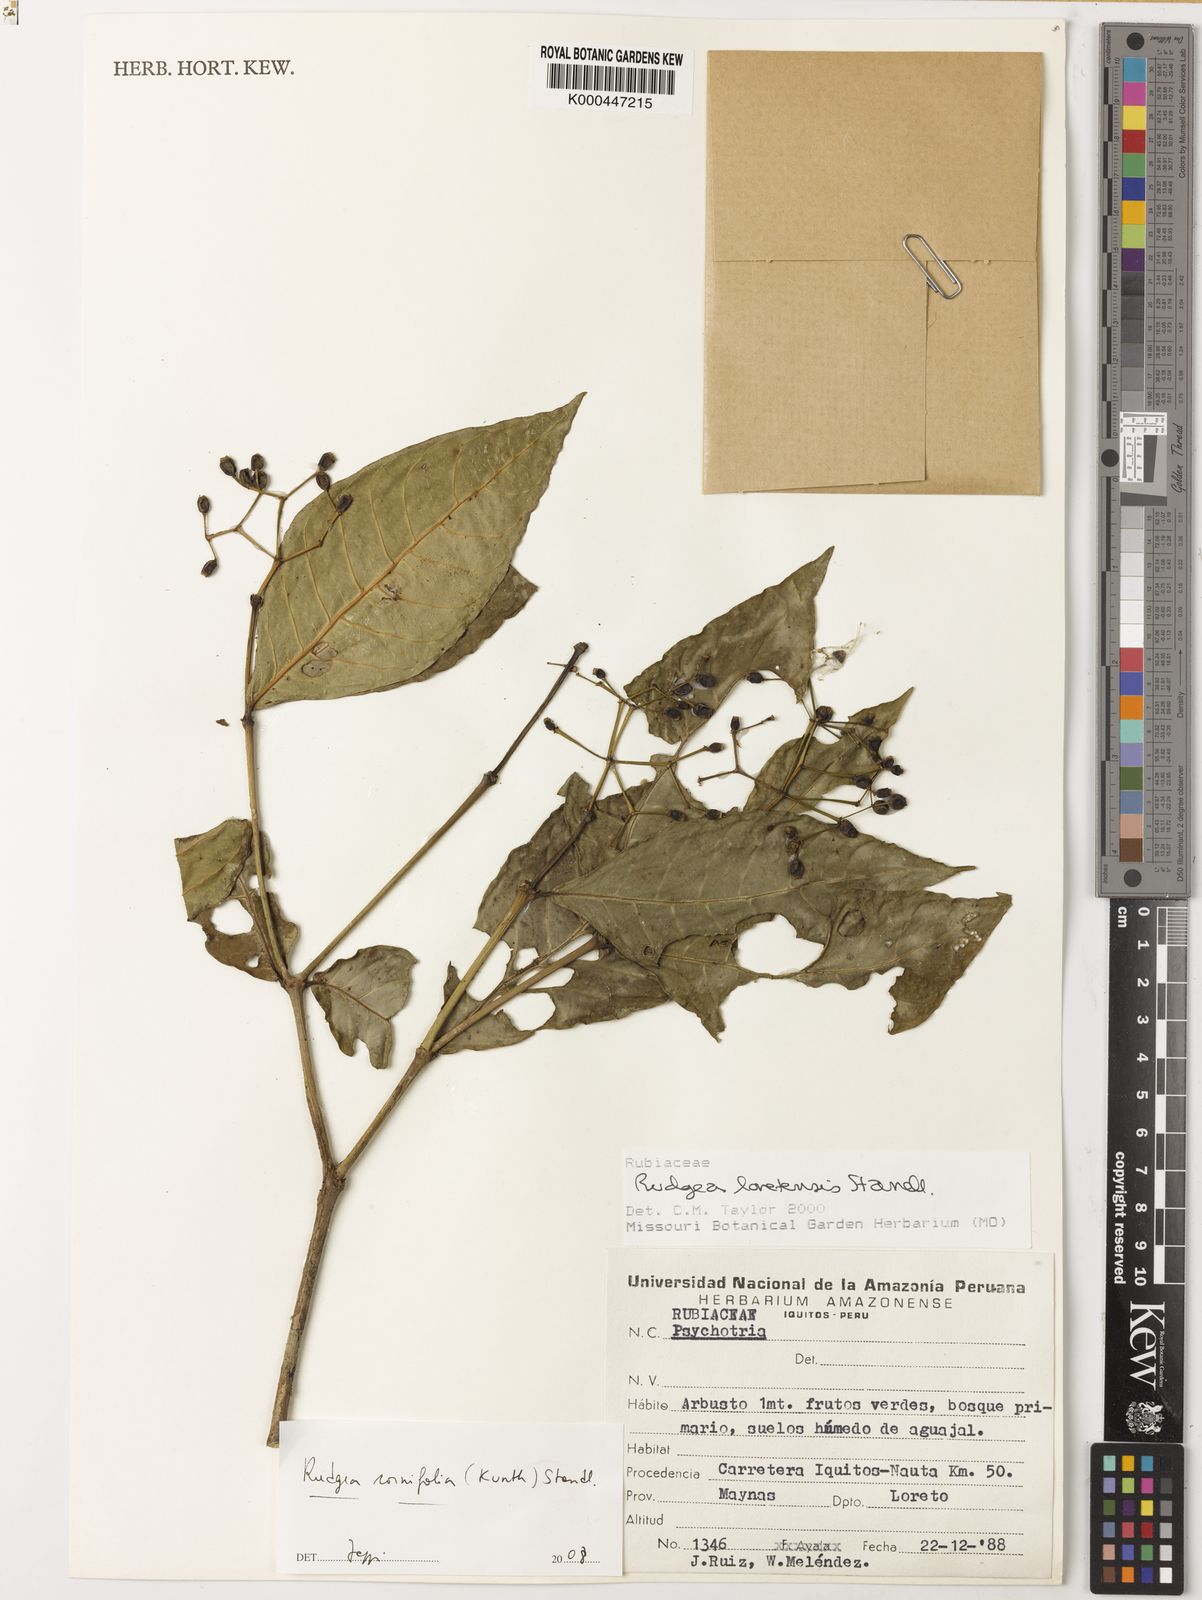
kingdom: Plantae
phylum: Tracheophyta
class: Magnoliopsida
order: Gentianales
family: Rubiaceae
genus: Rudgea
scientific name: Rudgea cornifolia
